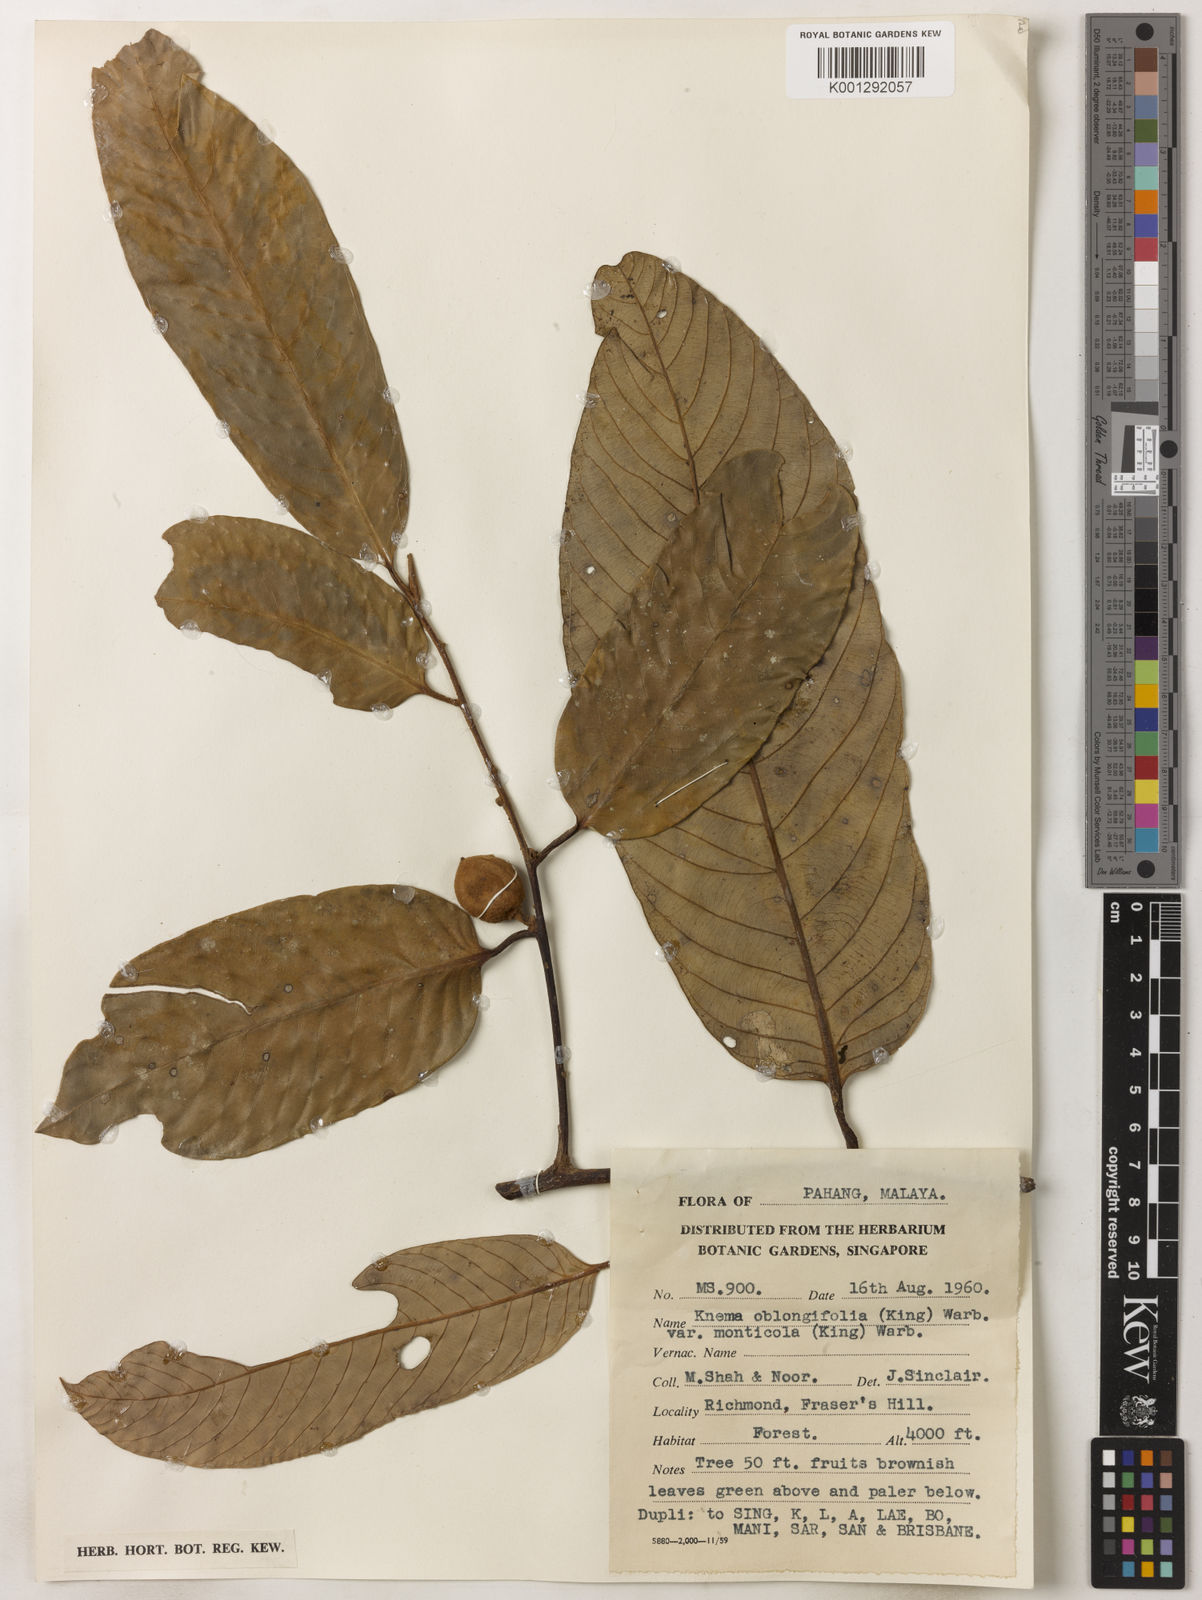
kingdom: Plantae
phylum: Tracheophyta
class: Magnoliopsida
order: Magnoliales
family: Myristicaceae
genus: Knema
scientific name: Knema
